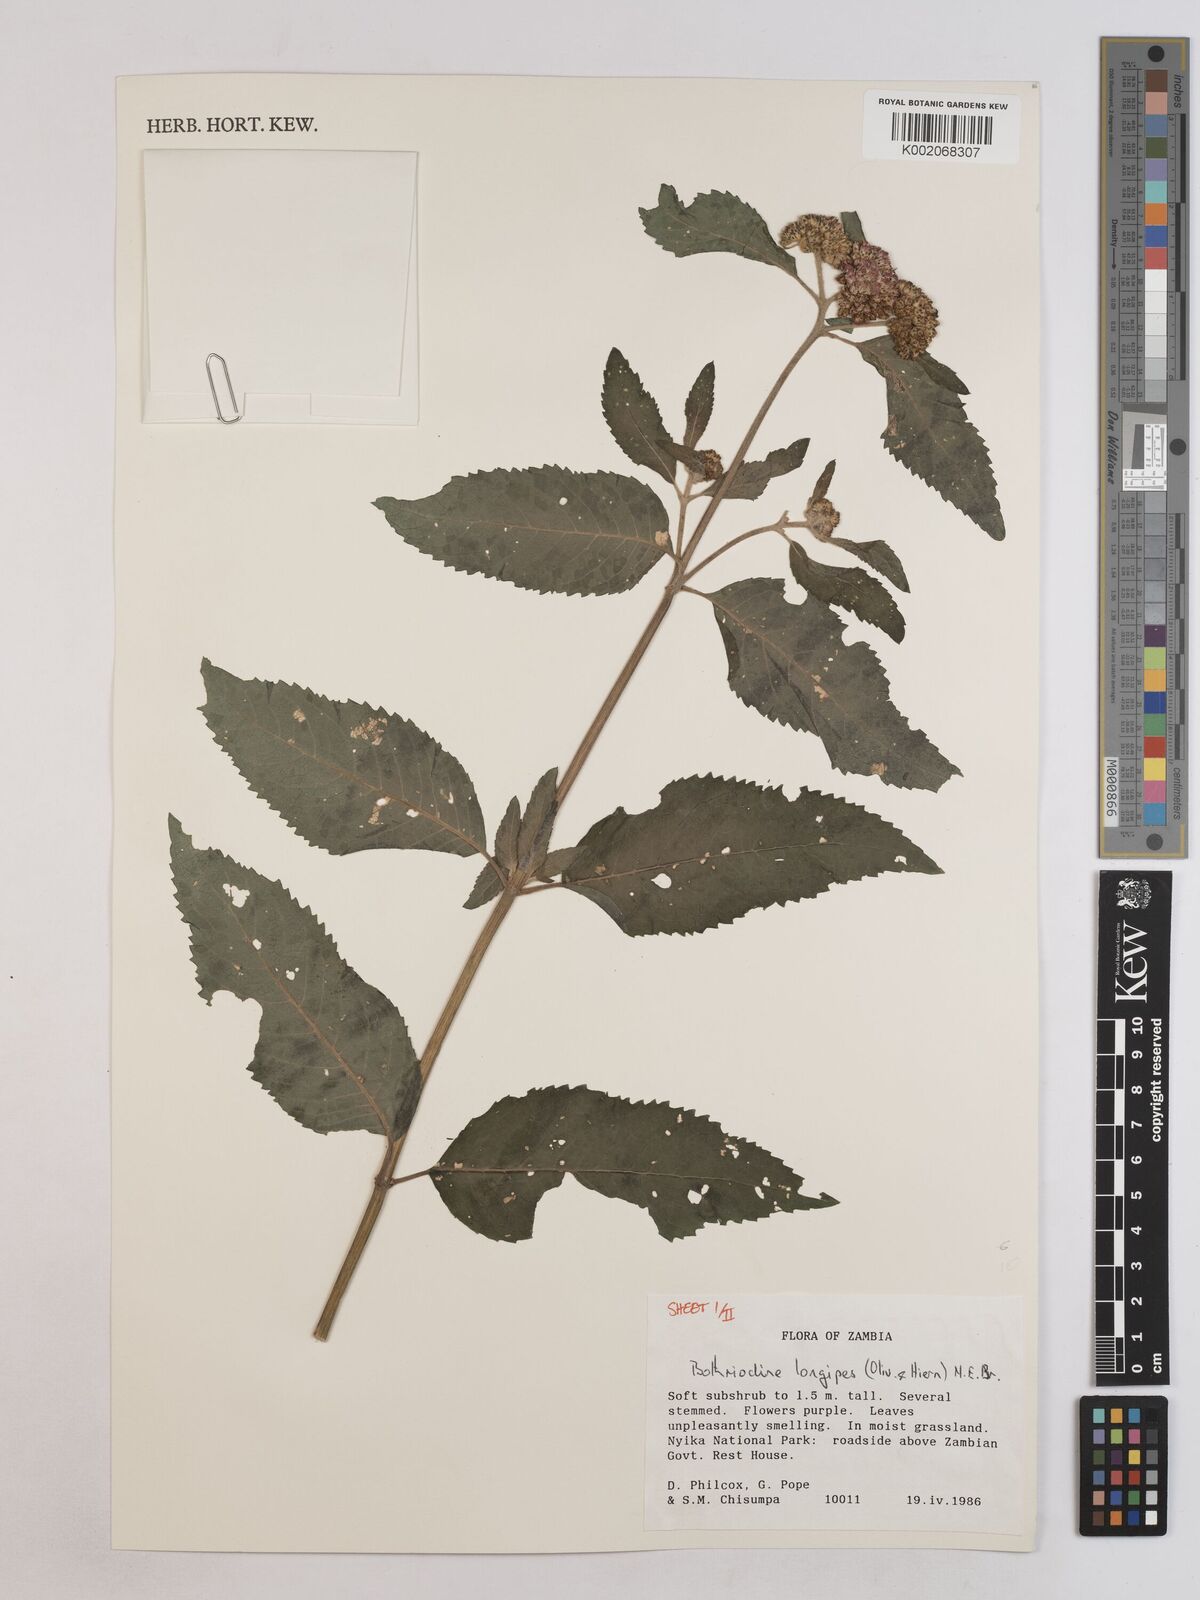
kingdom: Plantae
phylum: Tracheophyta
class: Magnoliopsida
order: Asterales
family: Asteraceae
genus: Bothriocline
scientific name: Bothriocline longipes
